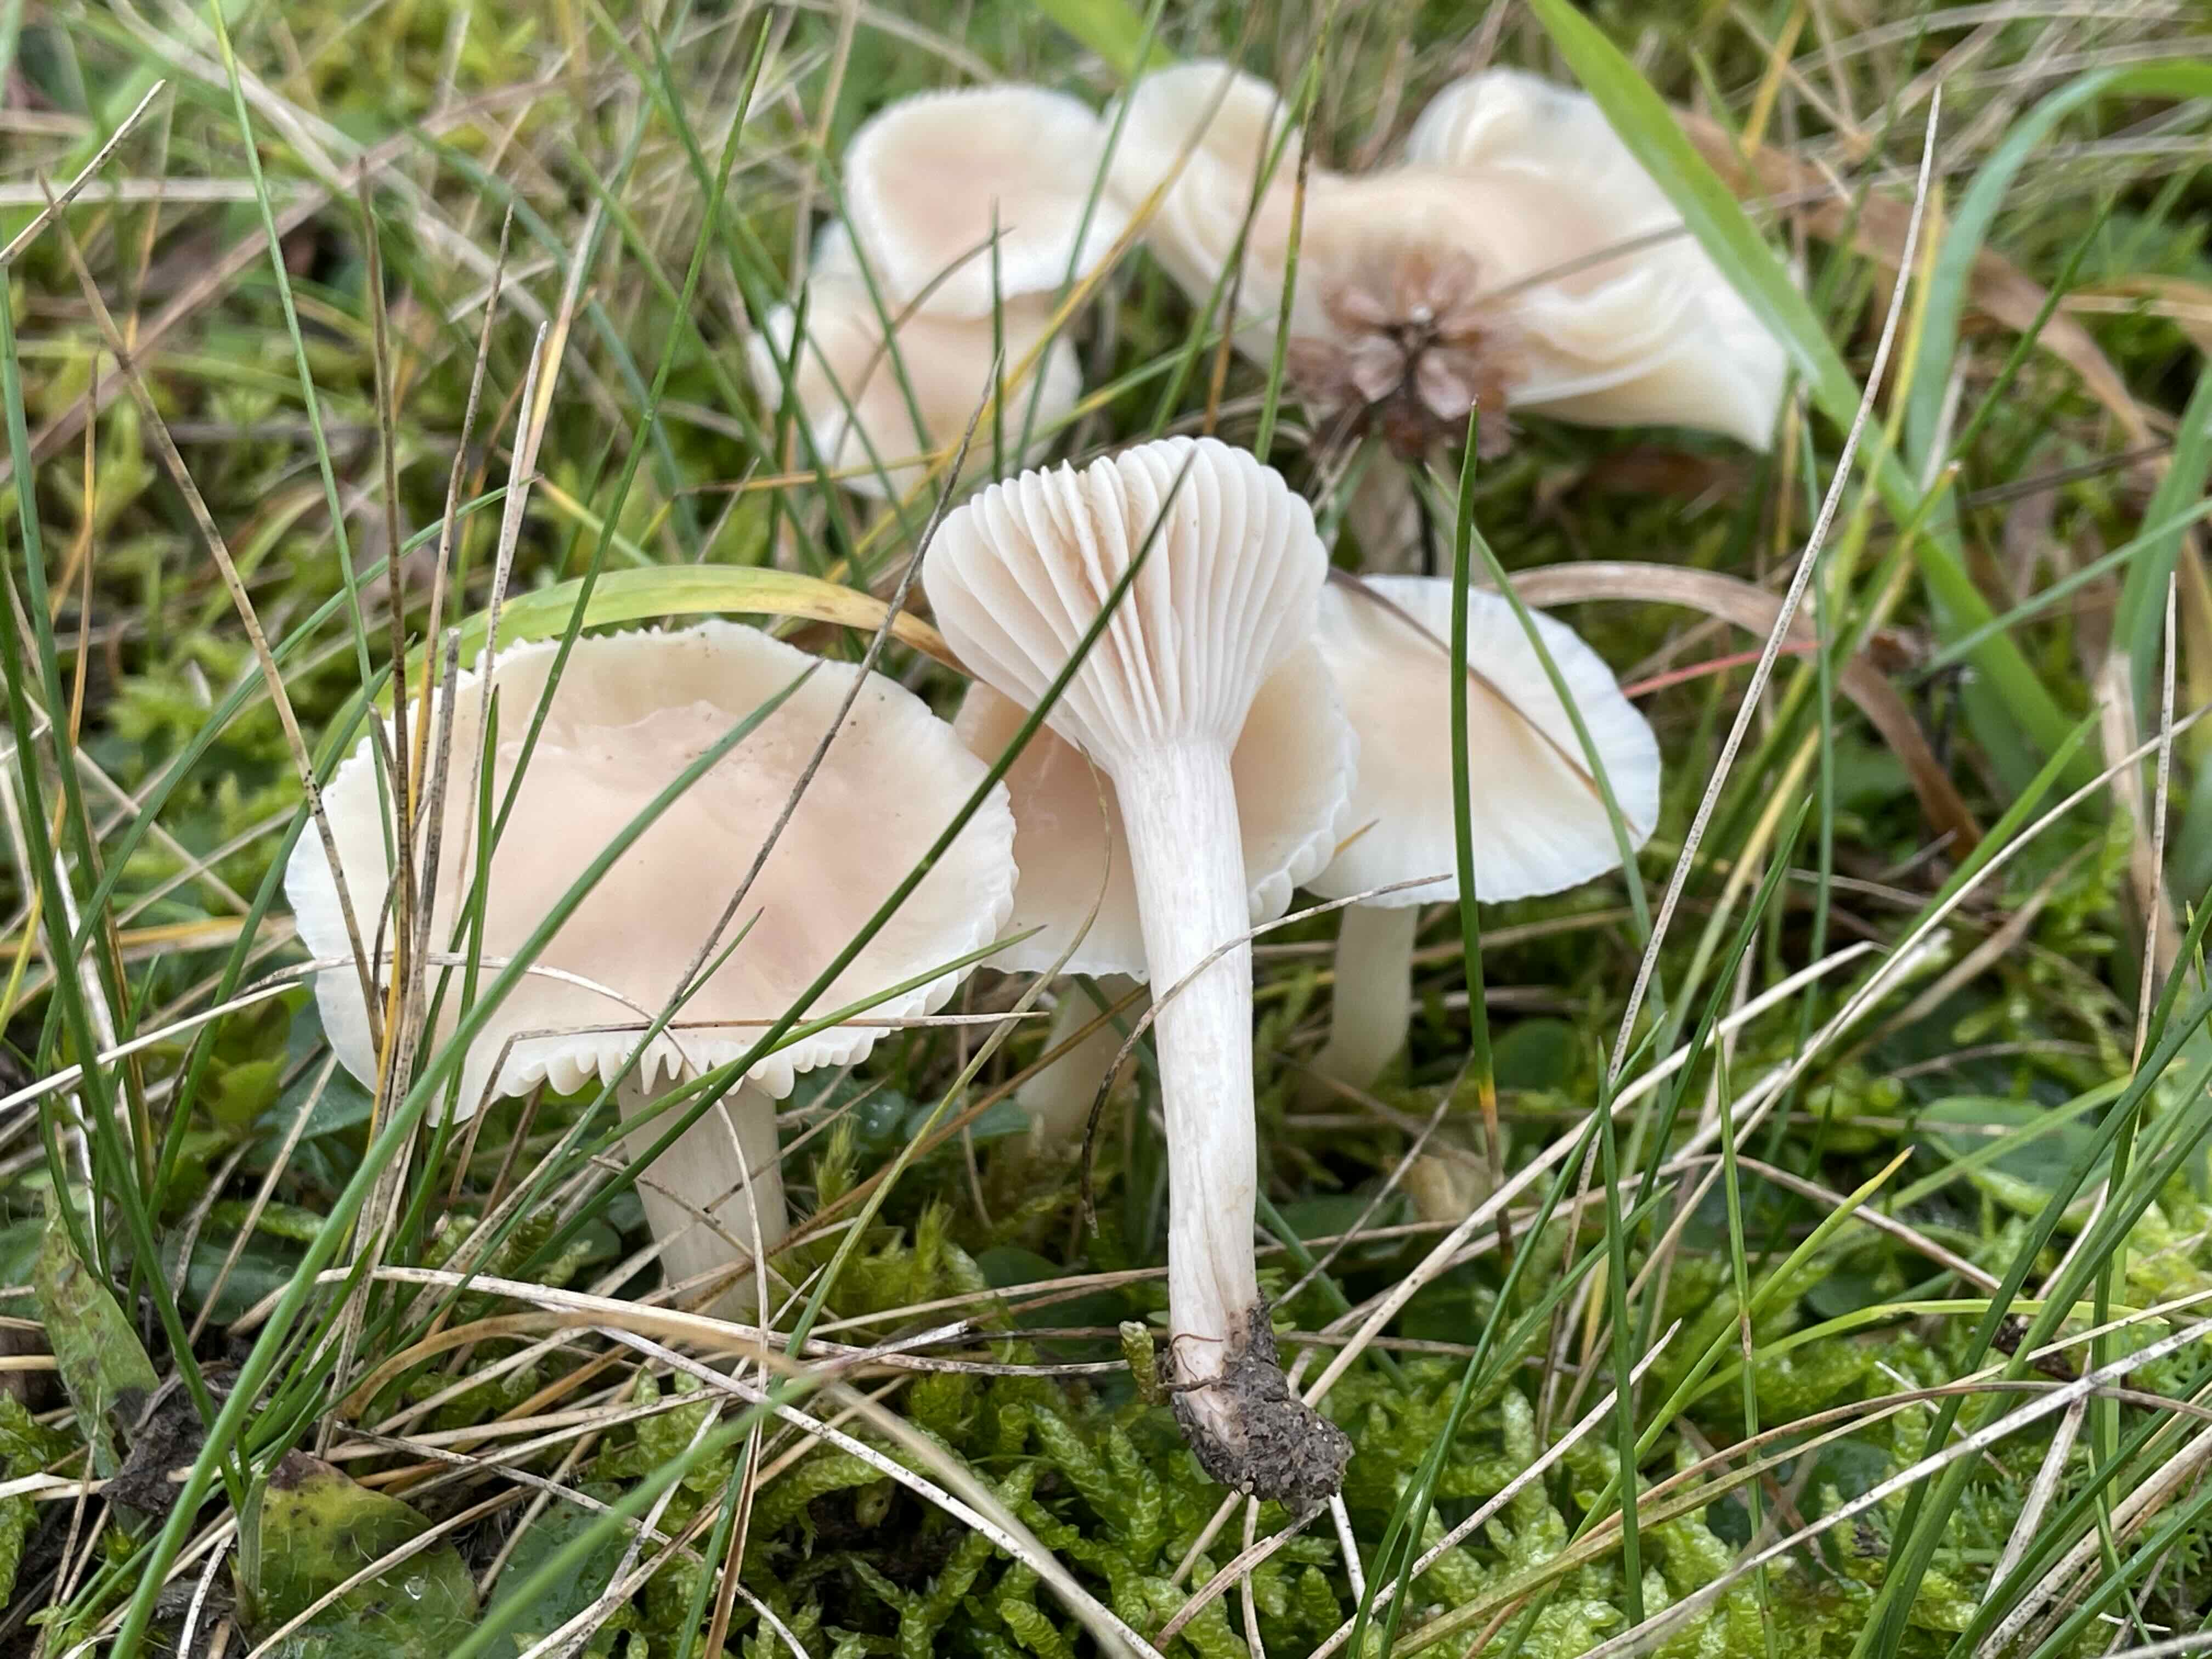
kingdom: Fungi
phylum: Basidiomycota
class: Agaricomycetes
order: Agaricales
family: Hygrophoraceae
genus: Cuphophyllus
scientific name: Cuphophyllus virgineus
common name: snehvid vokshat
